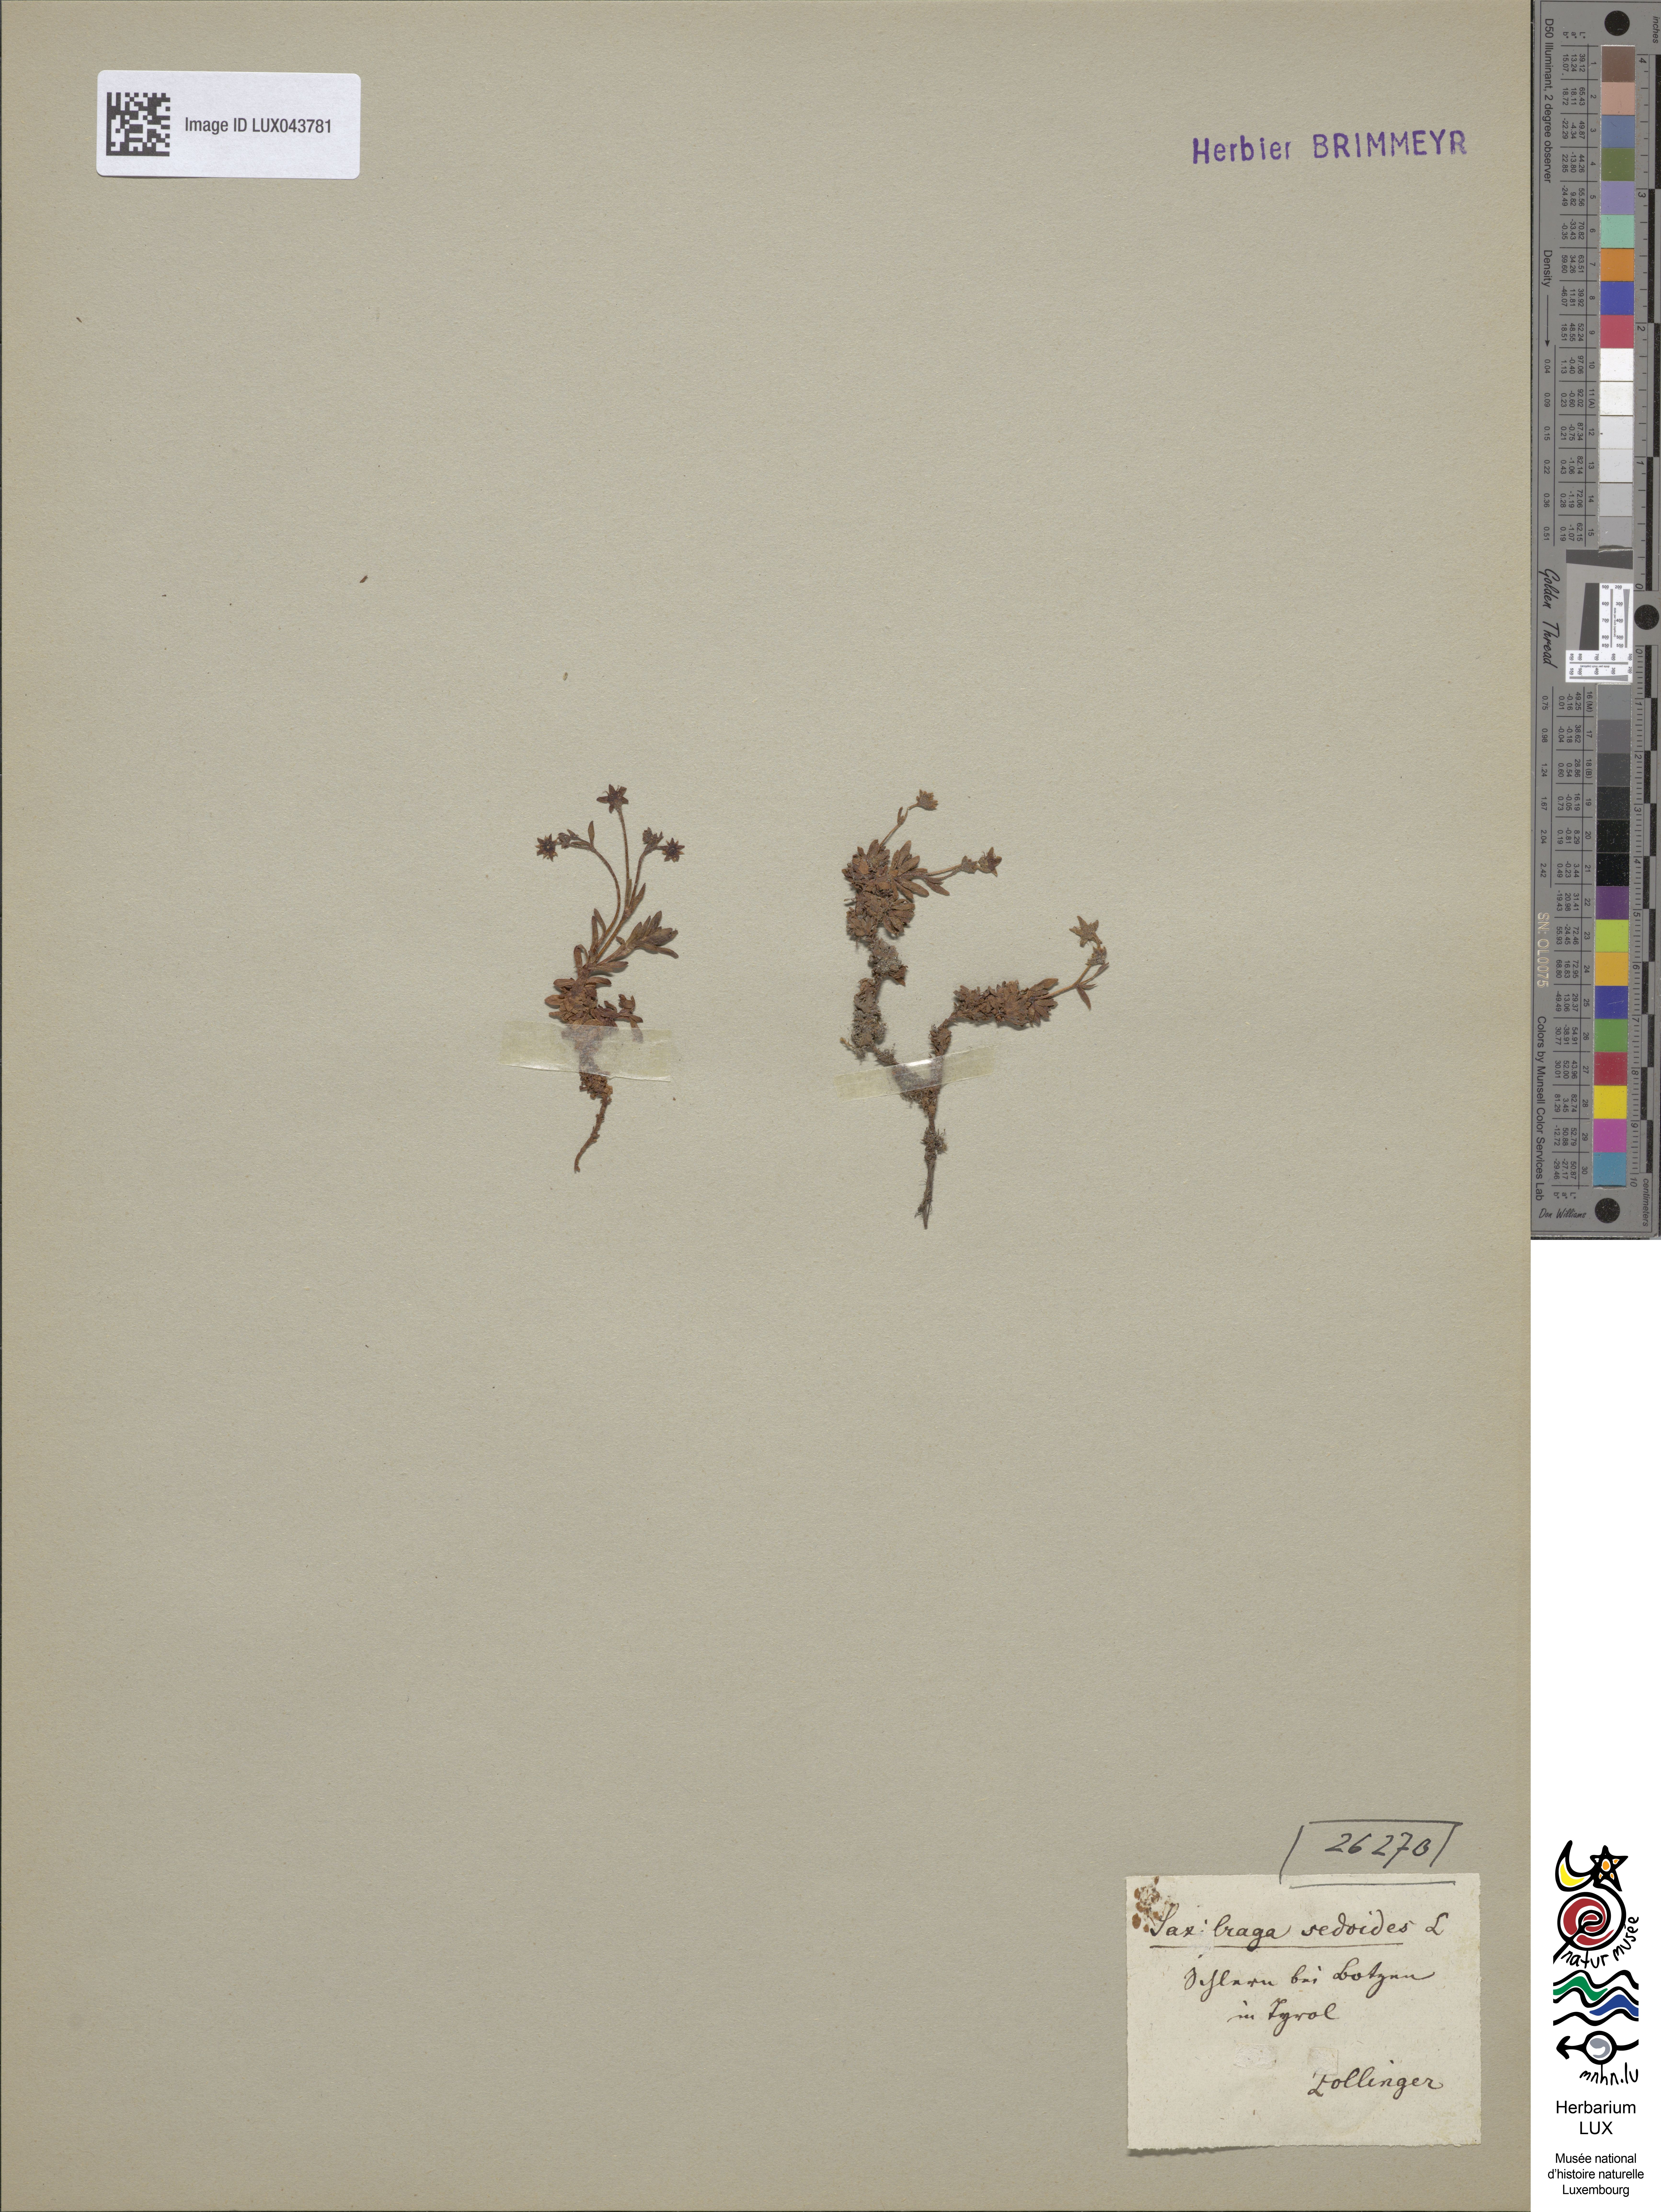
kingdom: Plantae
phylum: Tracheophyta
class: Magnoliopsida
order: Saxifragales
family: Saxifragaceae
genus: Saxifraga
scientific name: Saxifraga sedoides
